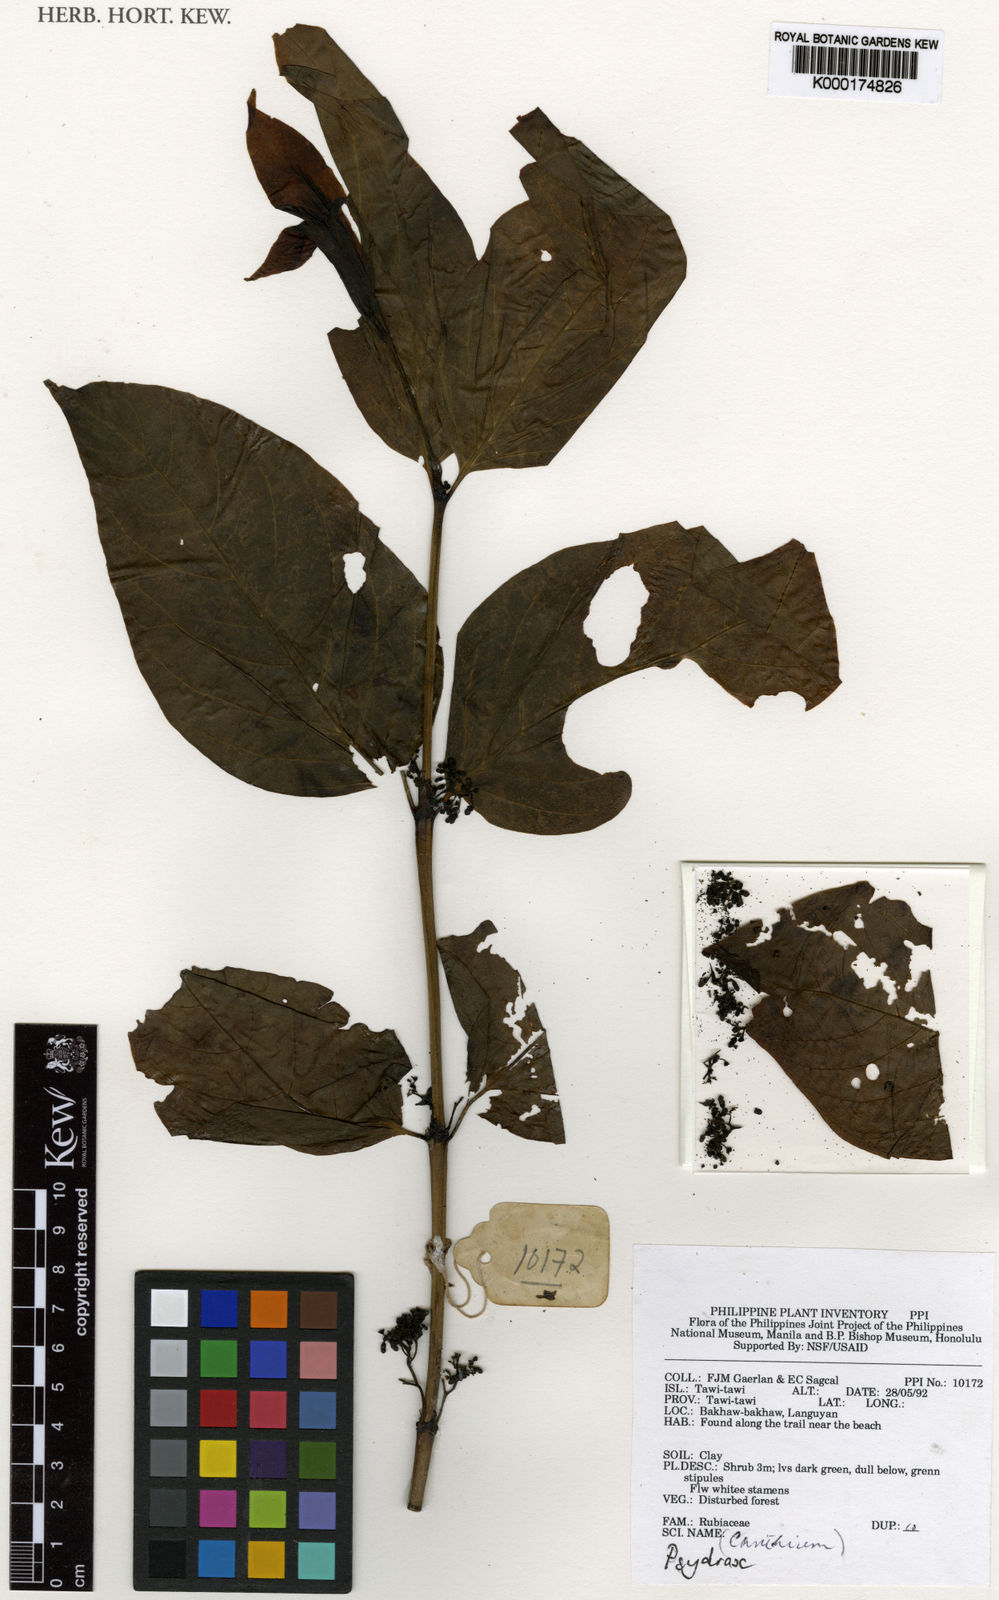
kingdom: Plantae
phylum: Tracheophyta
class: Magnoliopsida
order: Gentianales
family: Rubiaceae
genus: Psydrax
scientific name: Psydrax
